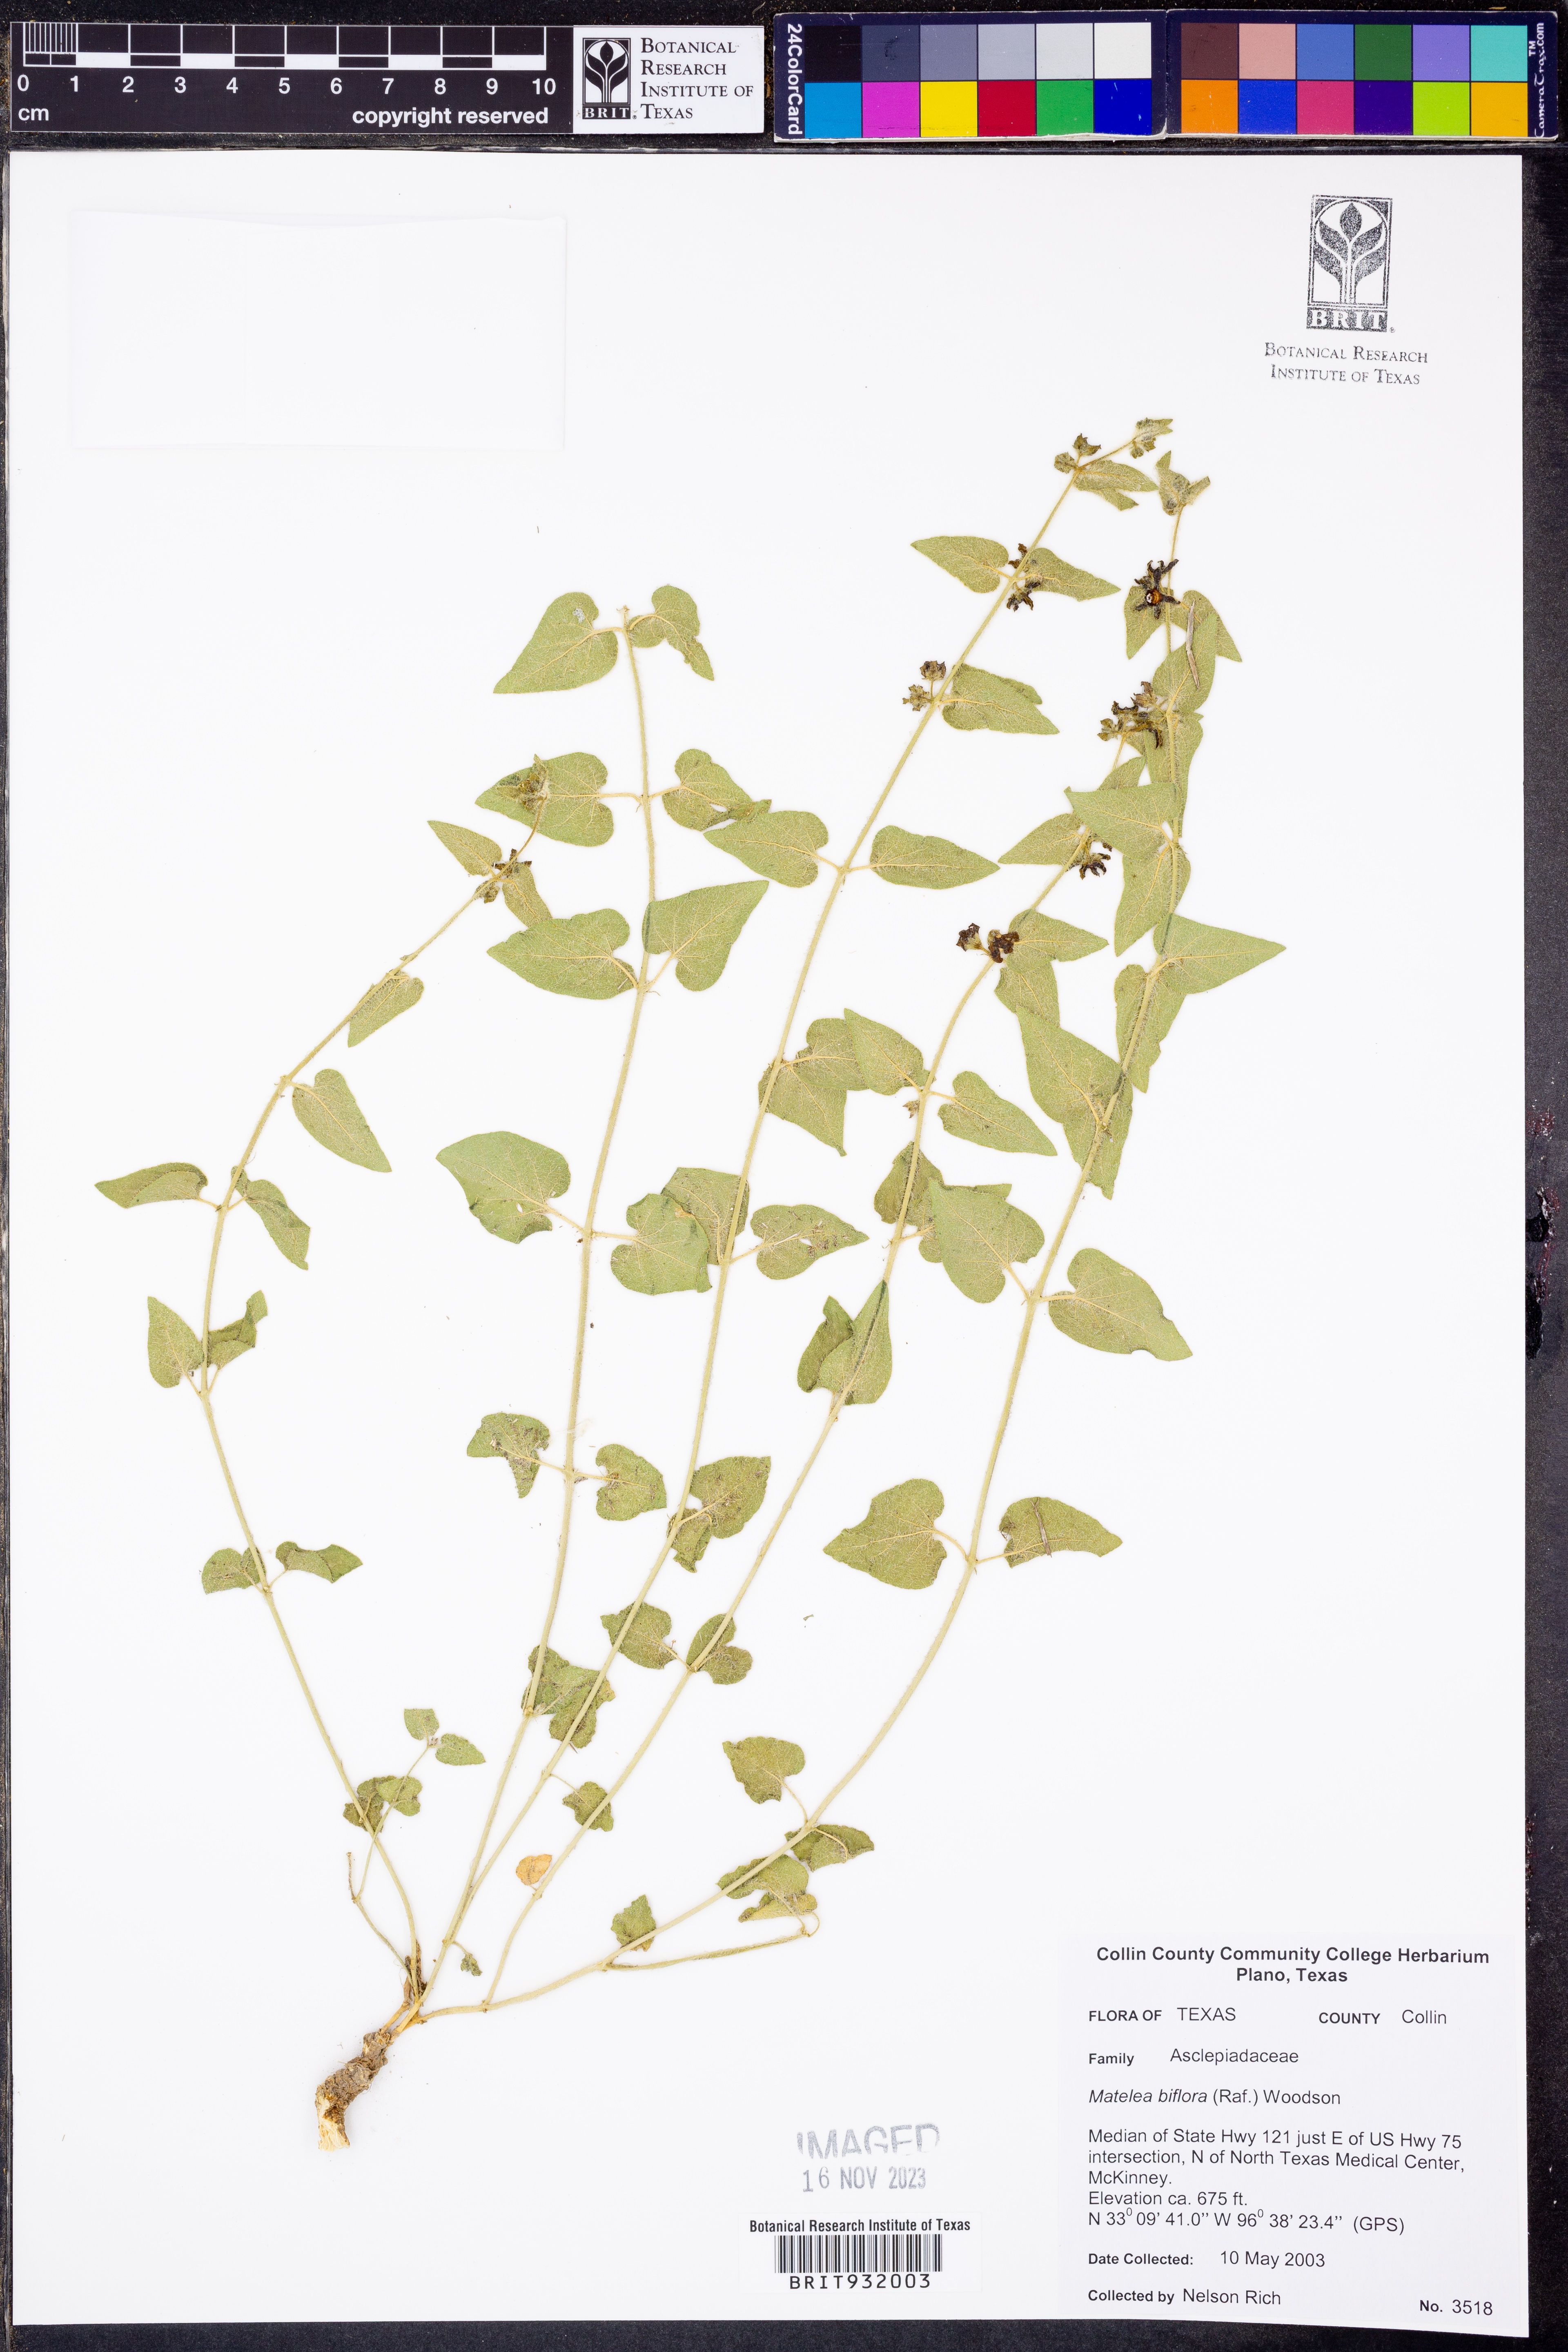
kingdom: Plantae
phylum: Tracheophyta
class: Magnoliopsida
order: Gentianales
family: Apocynaceae
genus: Chthamalia
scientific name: Chthamalia biflora
